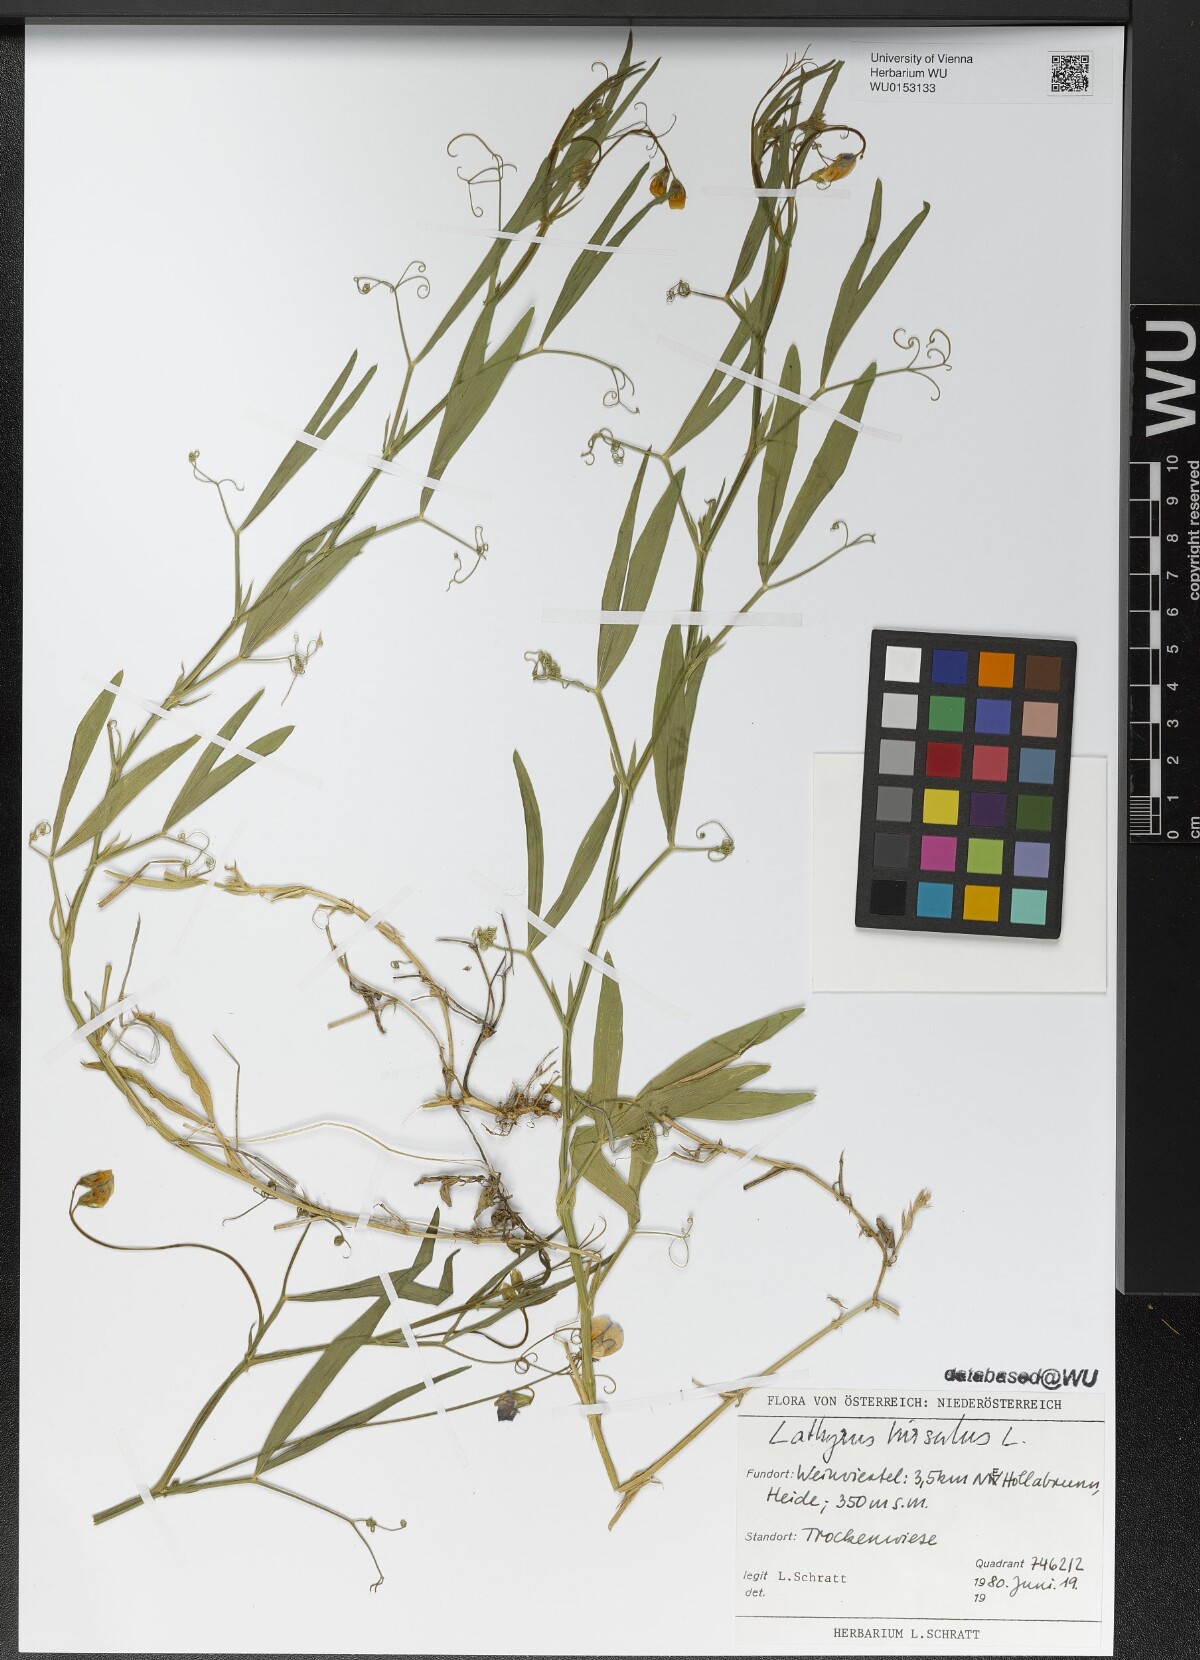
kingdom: Plantae
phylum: Tracheophyta
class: Magnoliopsida
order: Fabales
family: Fabaceae
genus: Lathyrus
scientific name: Lathyrus hirsutus
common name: Hairy vetchling
